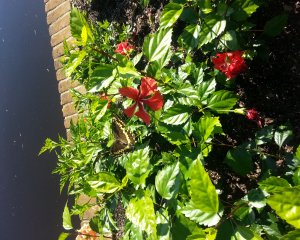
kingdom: Animalia
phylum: Arthropoda
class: Insecta
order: Lepidoptera
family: Papilionidae
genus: Pterourus
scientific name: Pterourus palamedes
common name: Palamedes Swallowtail
